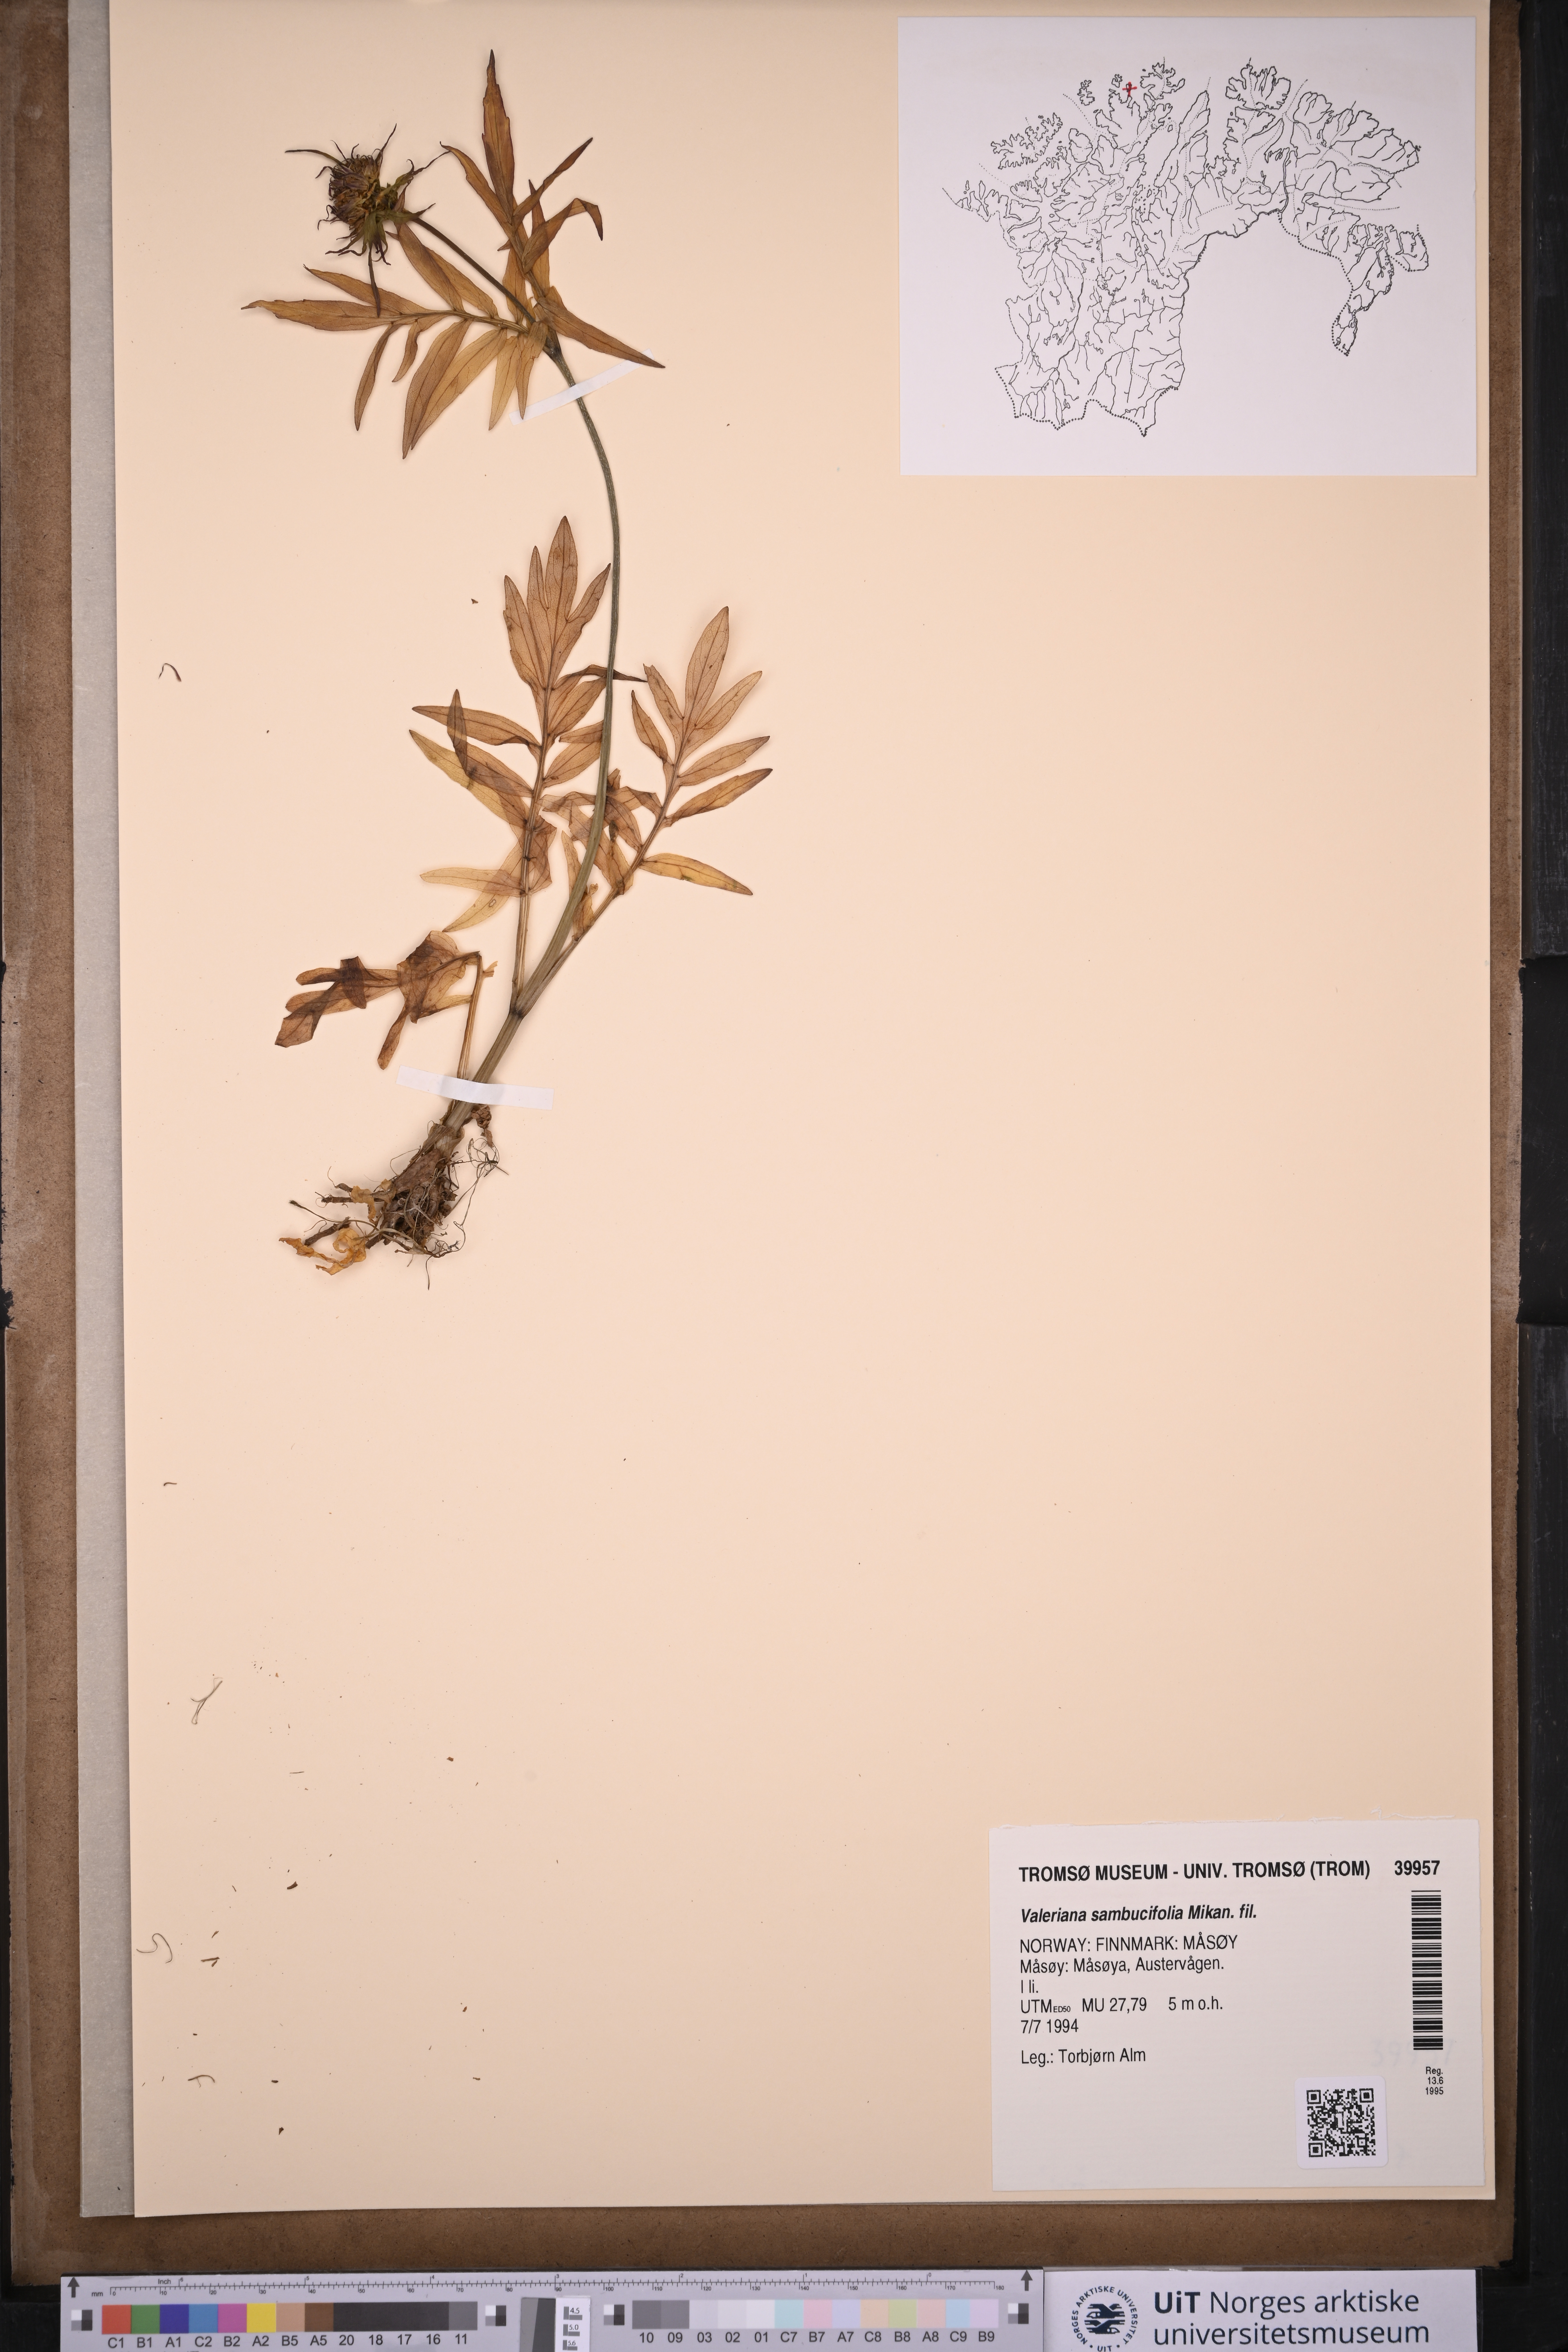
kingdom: Plantae
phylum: Tracheophyta
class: Magnoliopsida
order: Dipsacales
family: Caprifoliaceae
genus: Valeriana
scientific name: Valeriana excelsa
